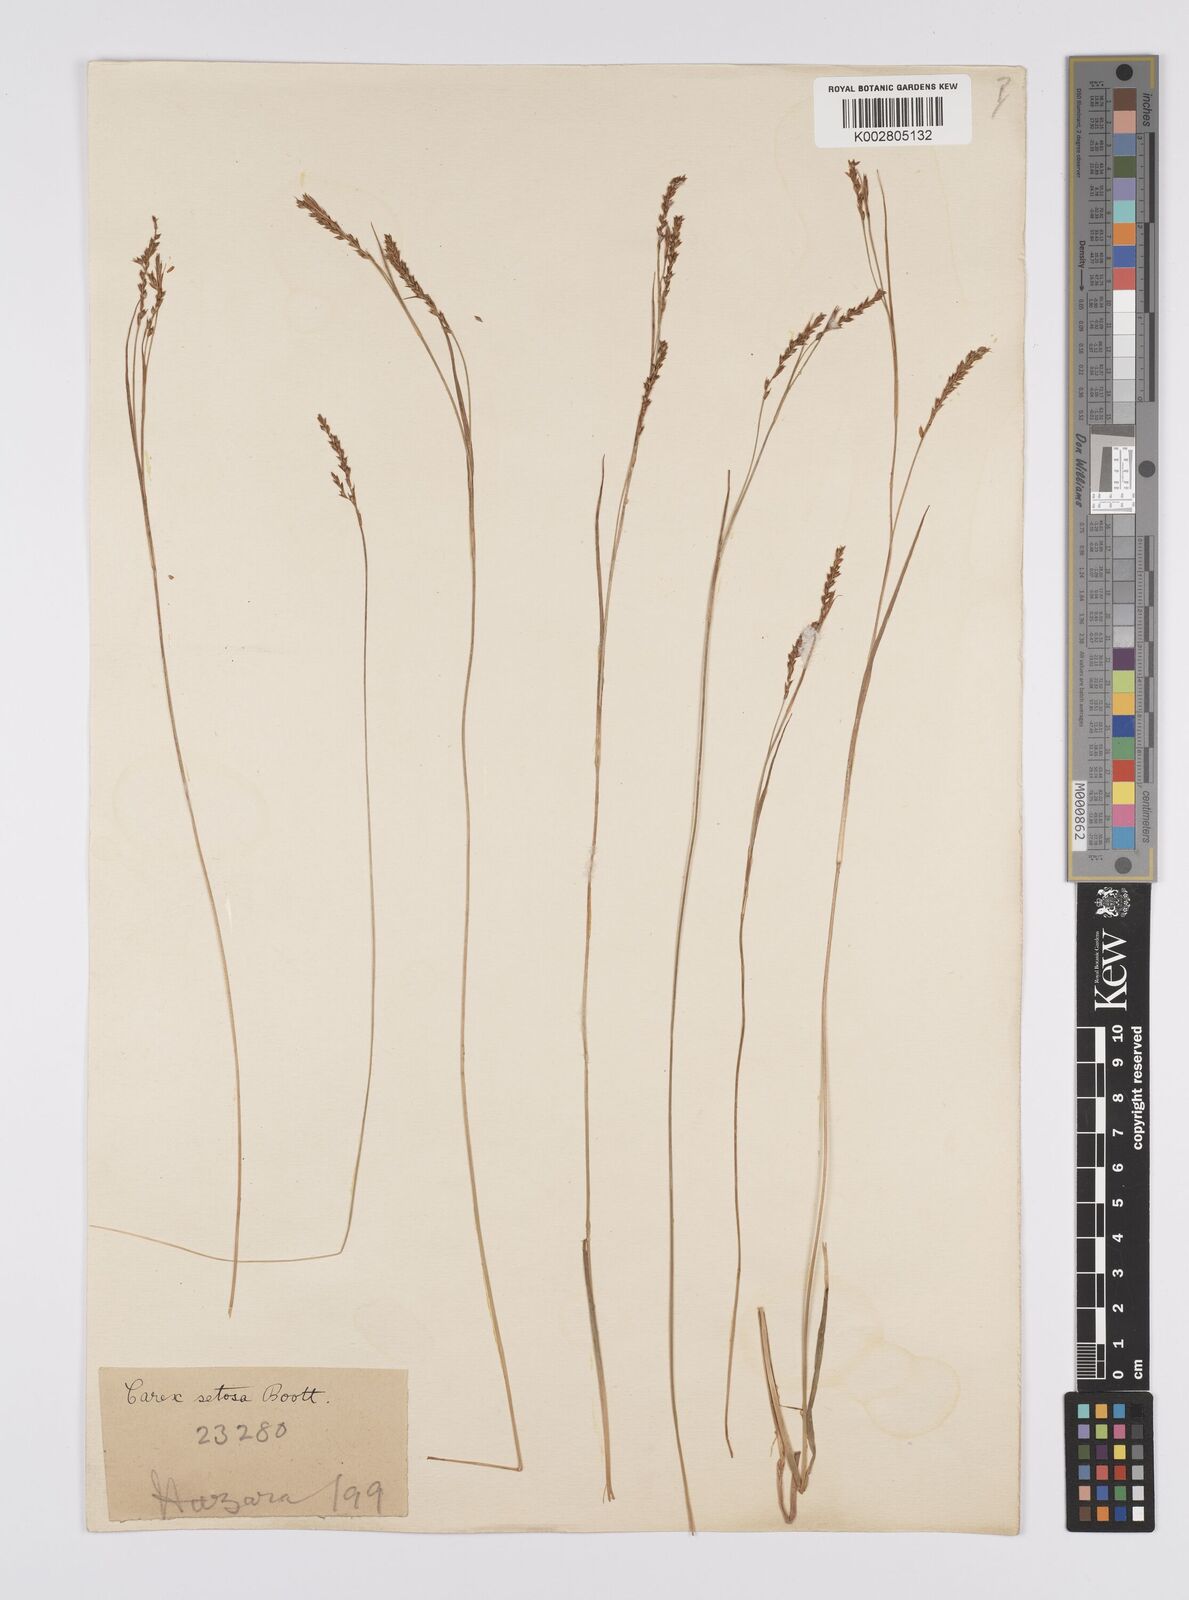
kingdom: Plantae
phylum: Tracheophyta
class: Liliopsida
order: Poales
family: Cyperaceae
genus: Carex
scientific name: Carex setosa
